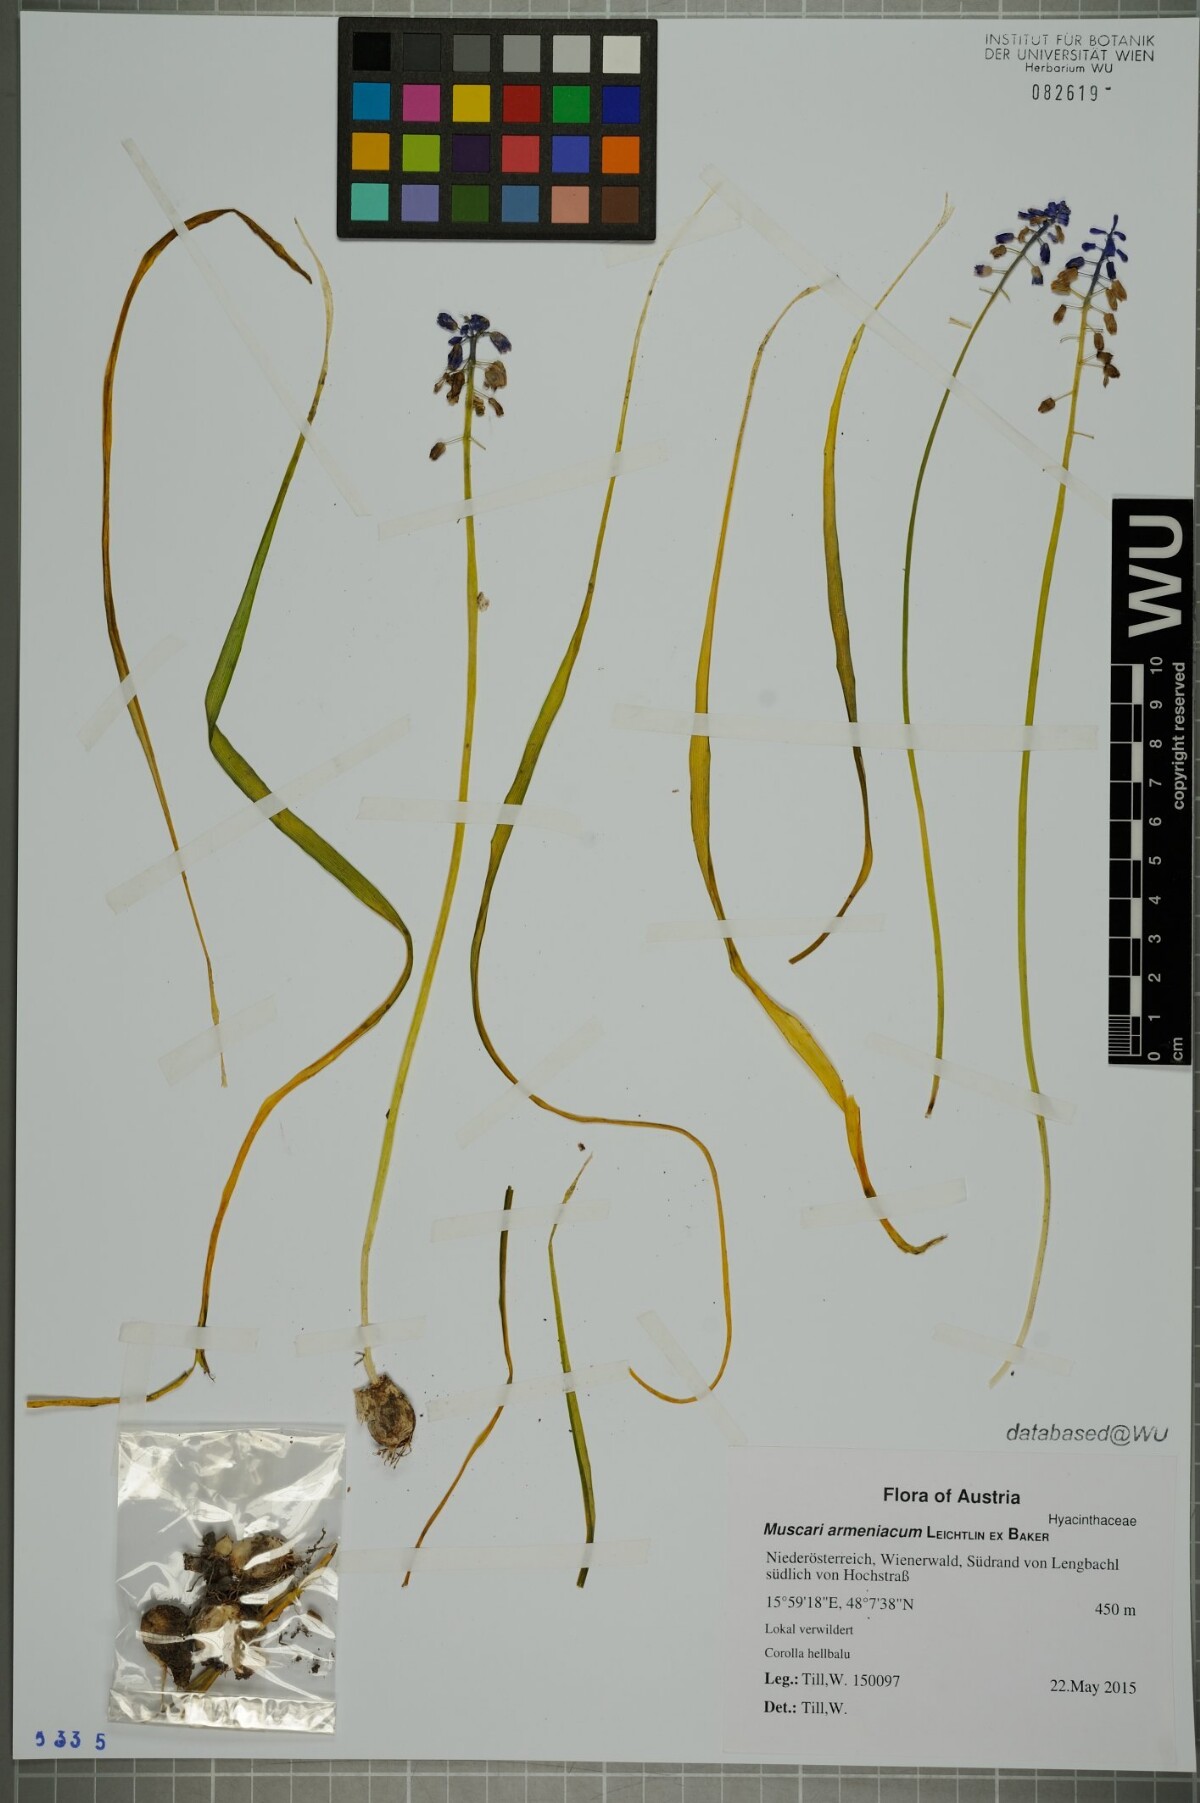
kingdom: Plantae
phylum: Tracheophyta
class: Liliopsida
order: Asparagales
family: Asparagaceae
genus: Muscari
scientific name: Muscari armeniacum
